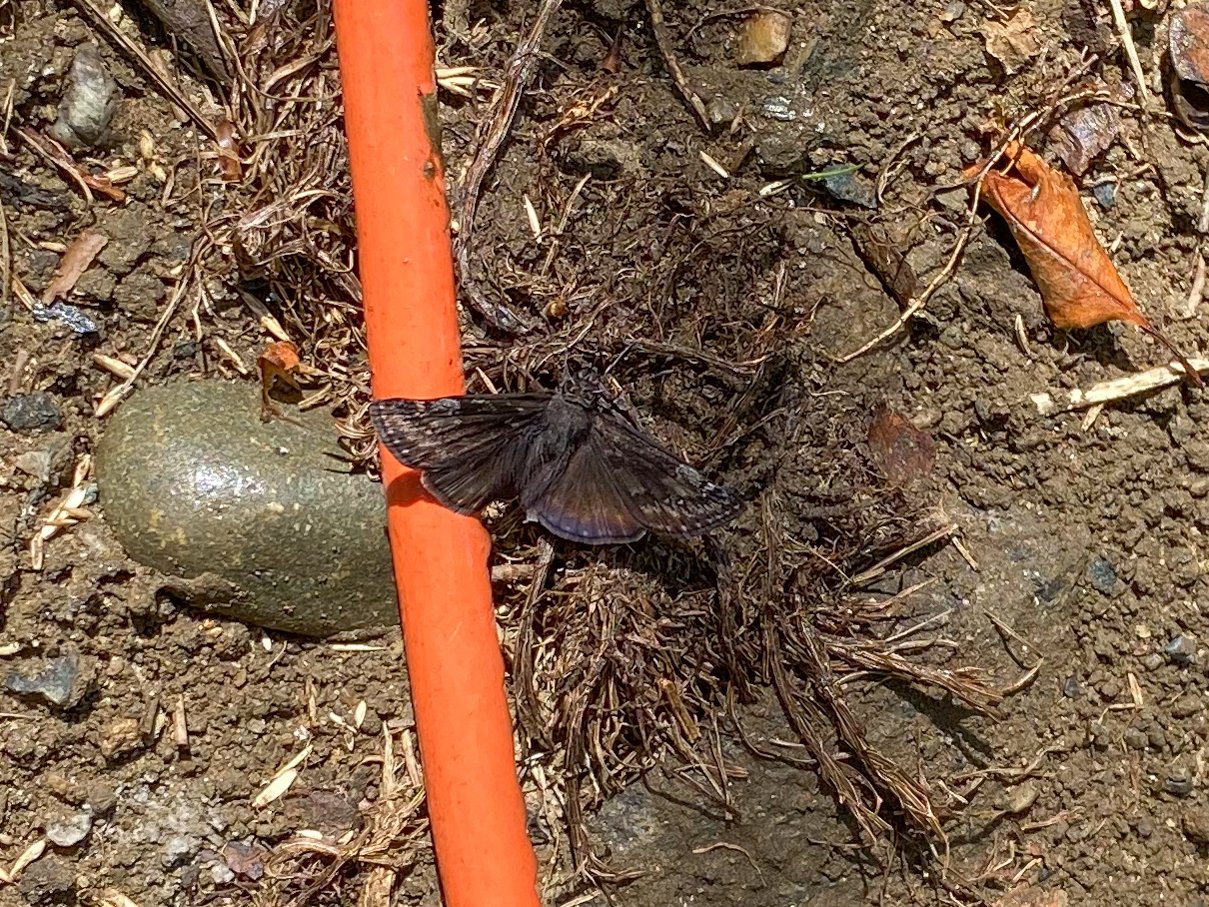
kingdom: Animalia
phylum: Arthropoda
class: Insecta
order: Lepidoptera
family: Hesperiidae
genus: Gesta
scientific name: Gesta
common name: Wild Indigo Duskywing
